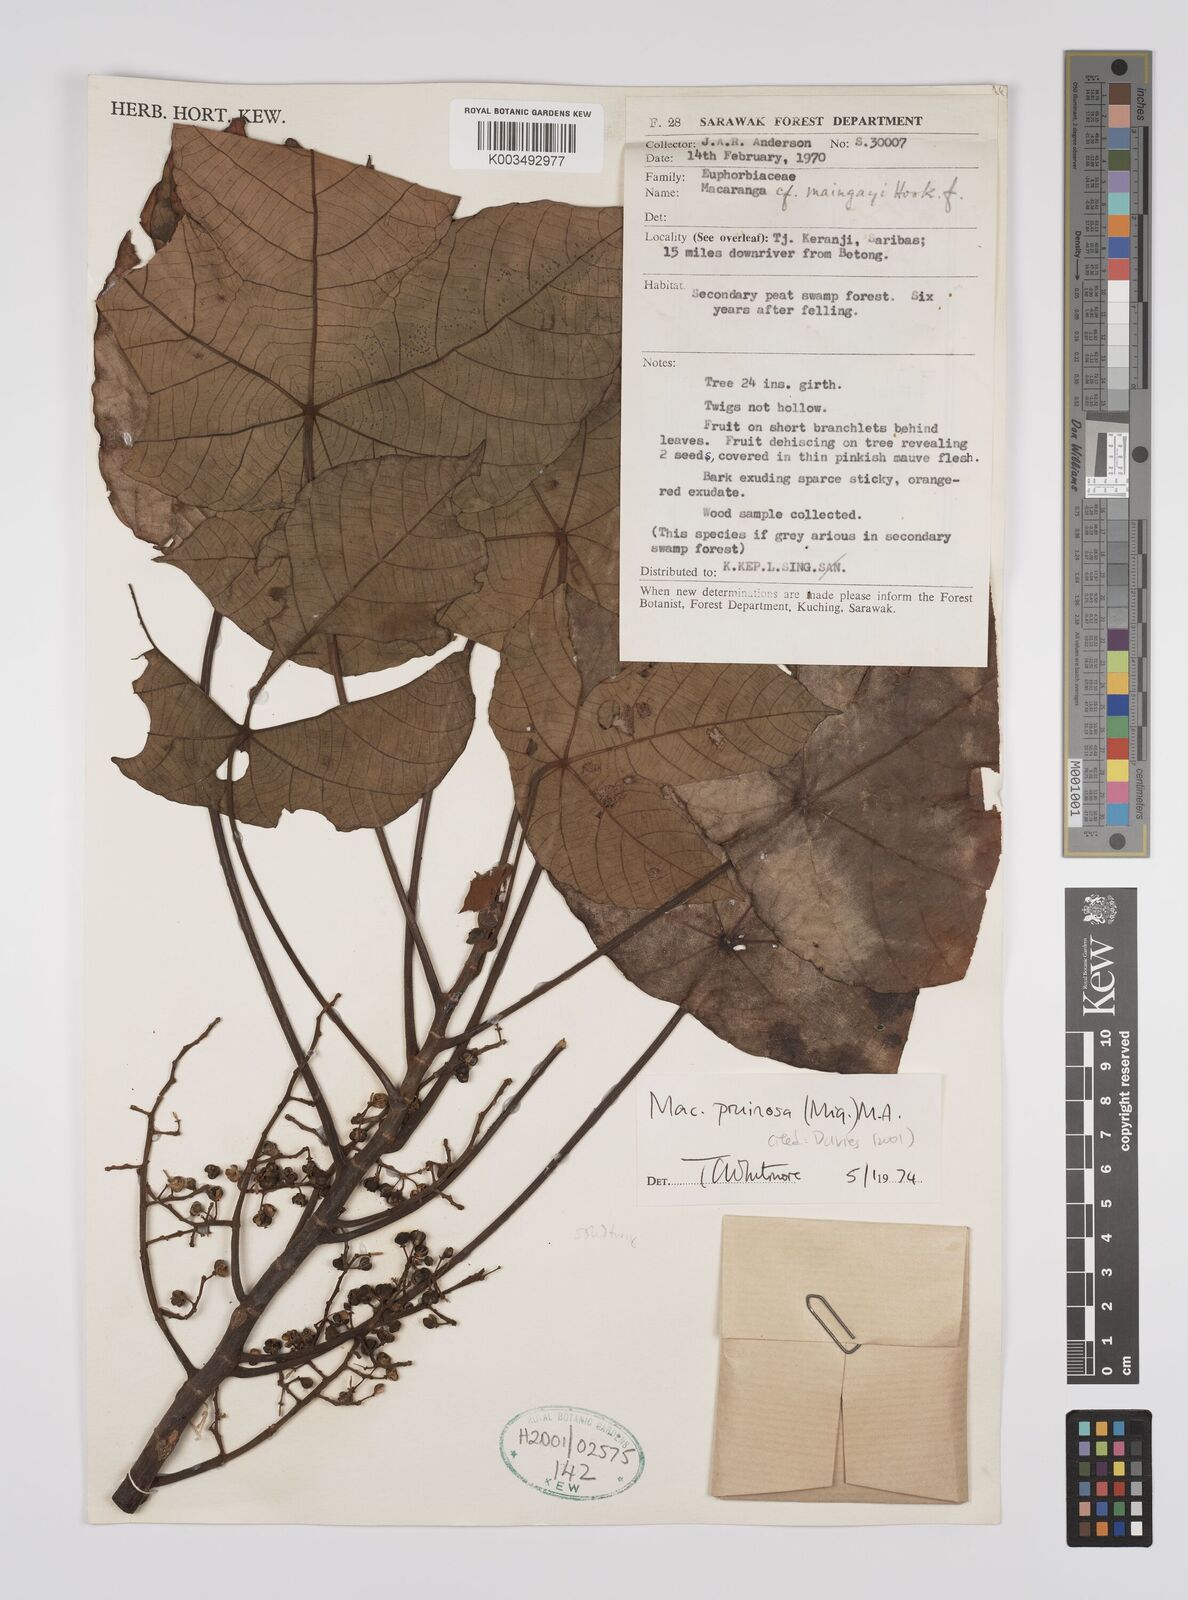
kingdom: Plantae
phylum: Tracheophyta
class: Magnoliopsida
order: Malpighiales
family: Euphorbiaceae
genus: Macaranga
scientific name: Macaranga pruinosa
